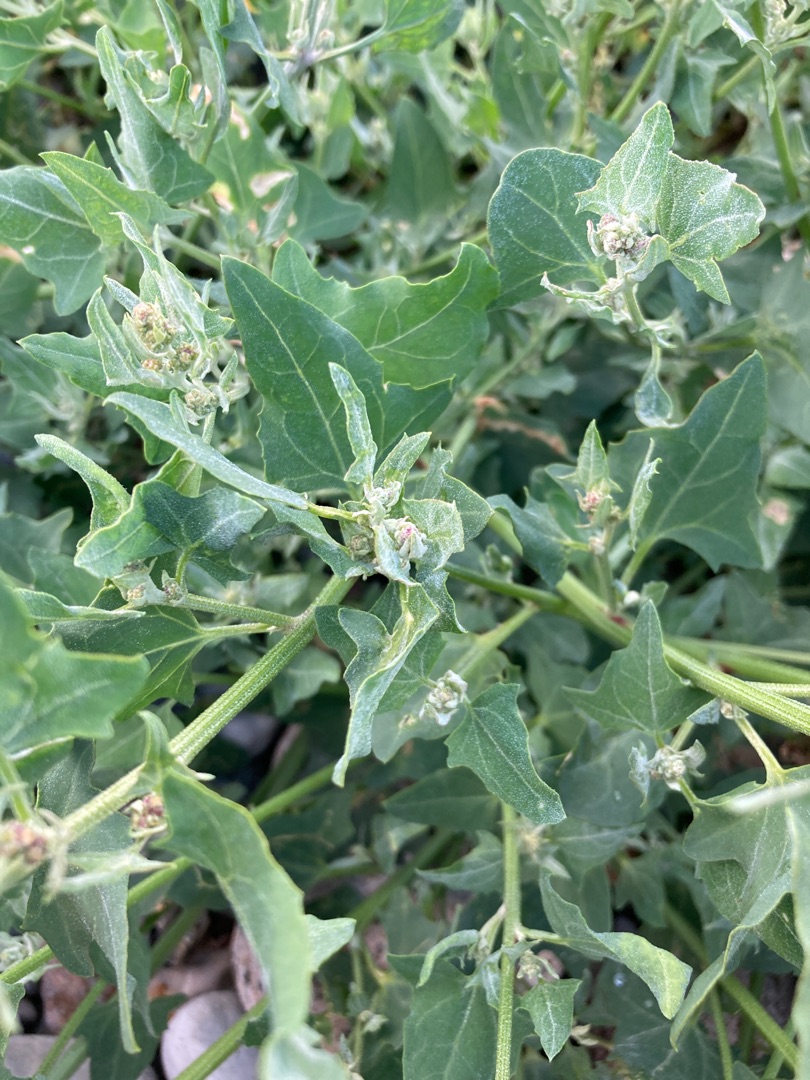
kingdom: Plantae
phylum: Tracheophyta
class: Magnoliopsida
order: Caryophyllales
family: Amaranthaceae
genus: Atriplex
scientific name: Atriplex prostrata
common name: Spyd-mælde
